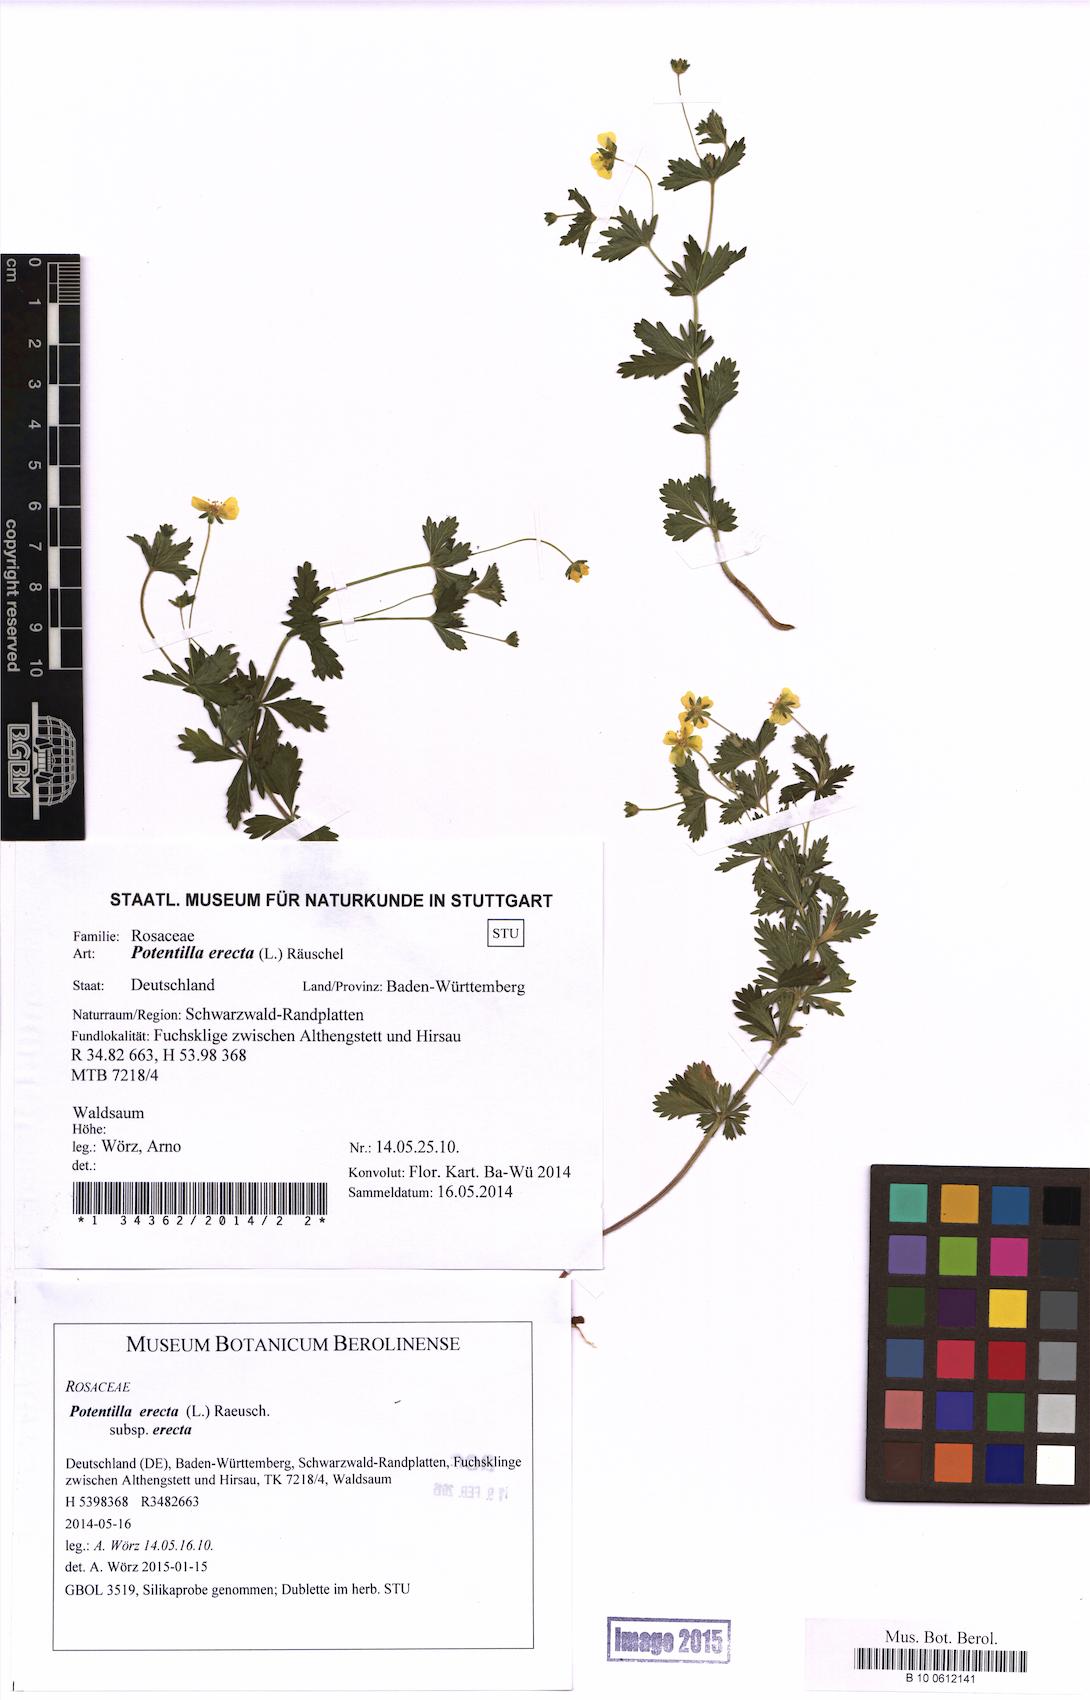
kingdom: Plantae
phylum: Tracheophyta
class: Magnoliopsida
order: Rosales
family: Rosaceae
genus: Potentilla
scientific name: Potentilla erecta
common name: Tormentil
